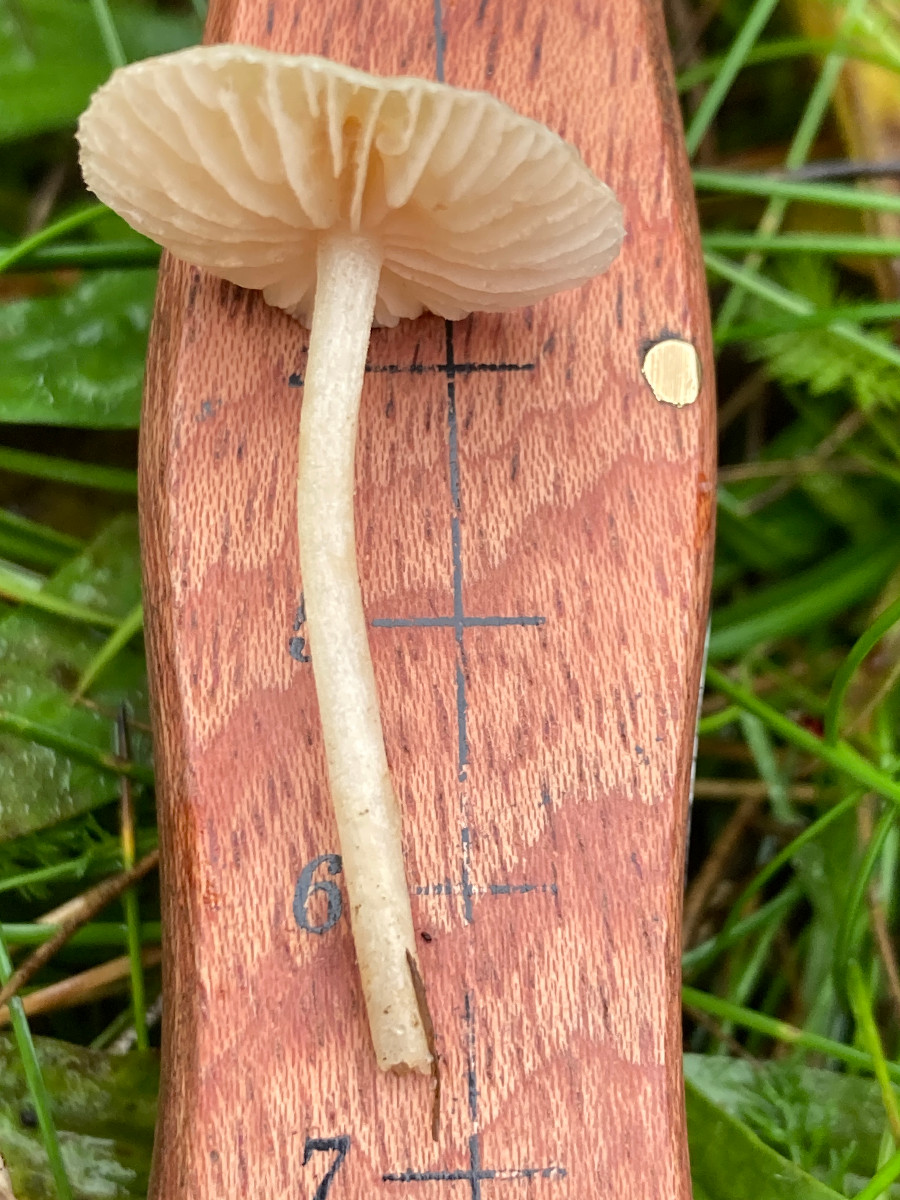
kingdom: Fungi
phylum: Basidiomycota
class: Agaricomycetes
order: Agaricales
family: Entolomataceae
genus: Entoloma
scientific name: Entoloma sericellum
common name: silkehvid rødblad
